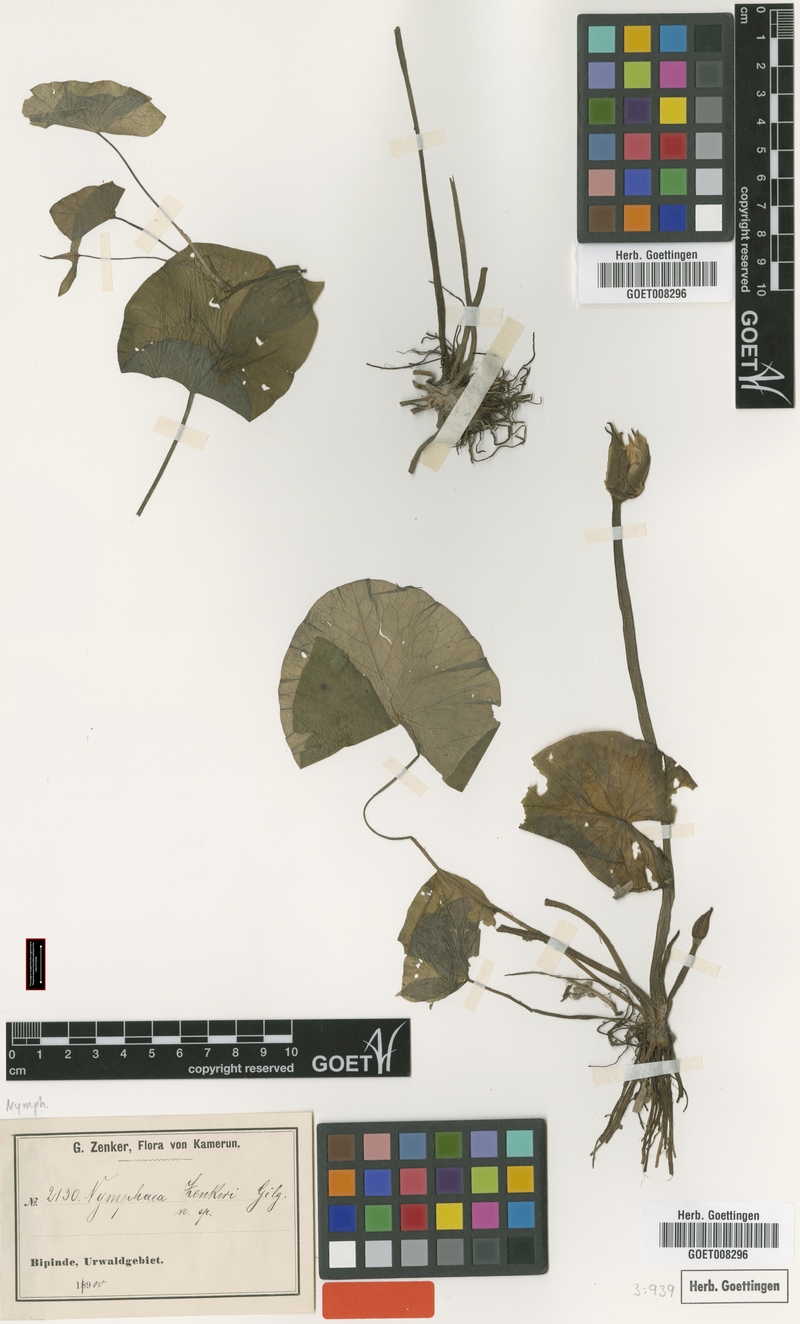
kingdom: Plantae
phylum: Tracheophyta
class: Magnoliopsida
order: Nymphaeales
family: Nymphaeaceae
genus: Nymphaea
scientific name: Nymphaea lotus
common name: White egyptian lotus
